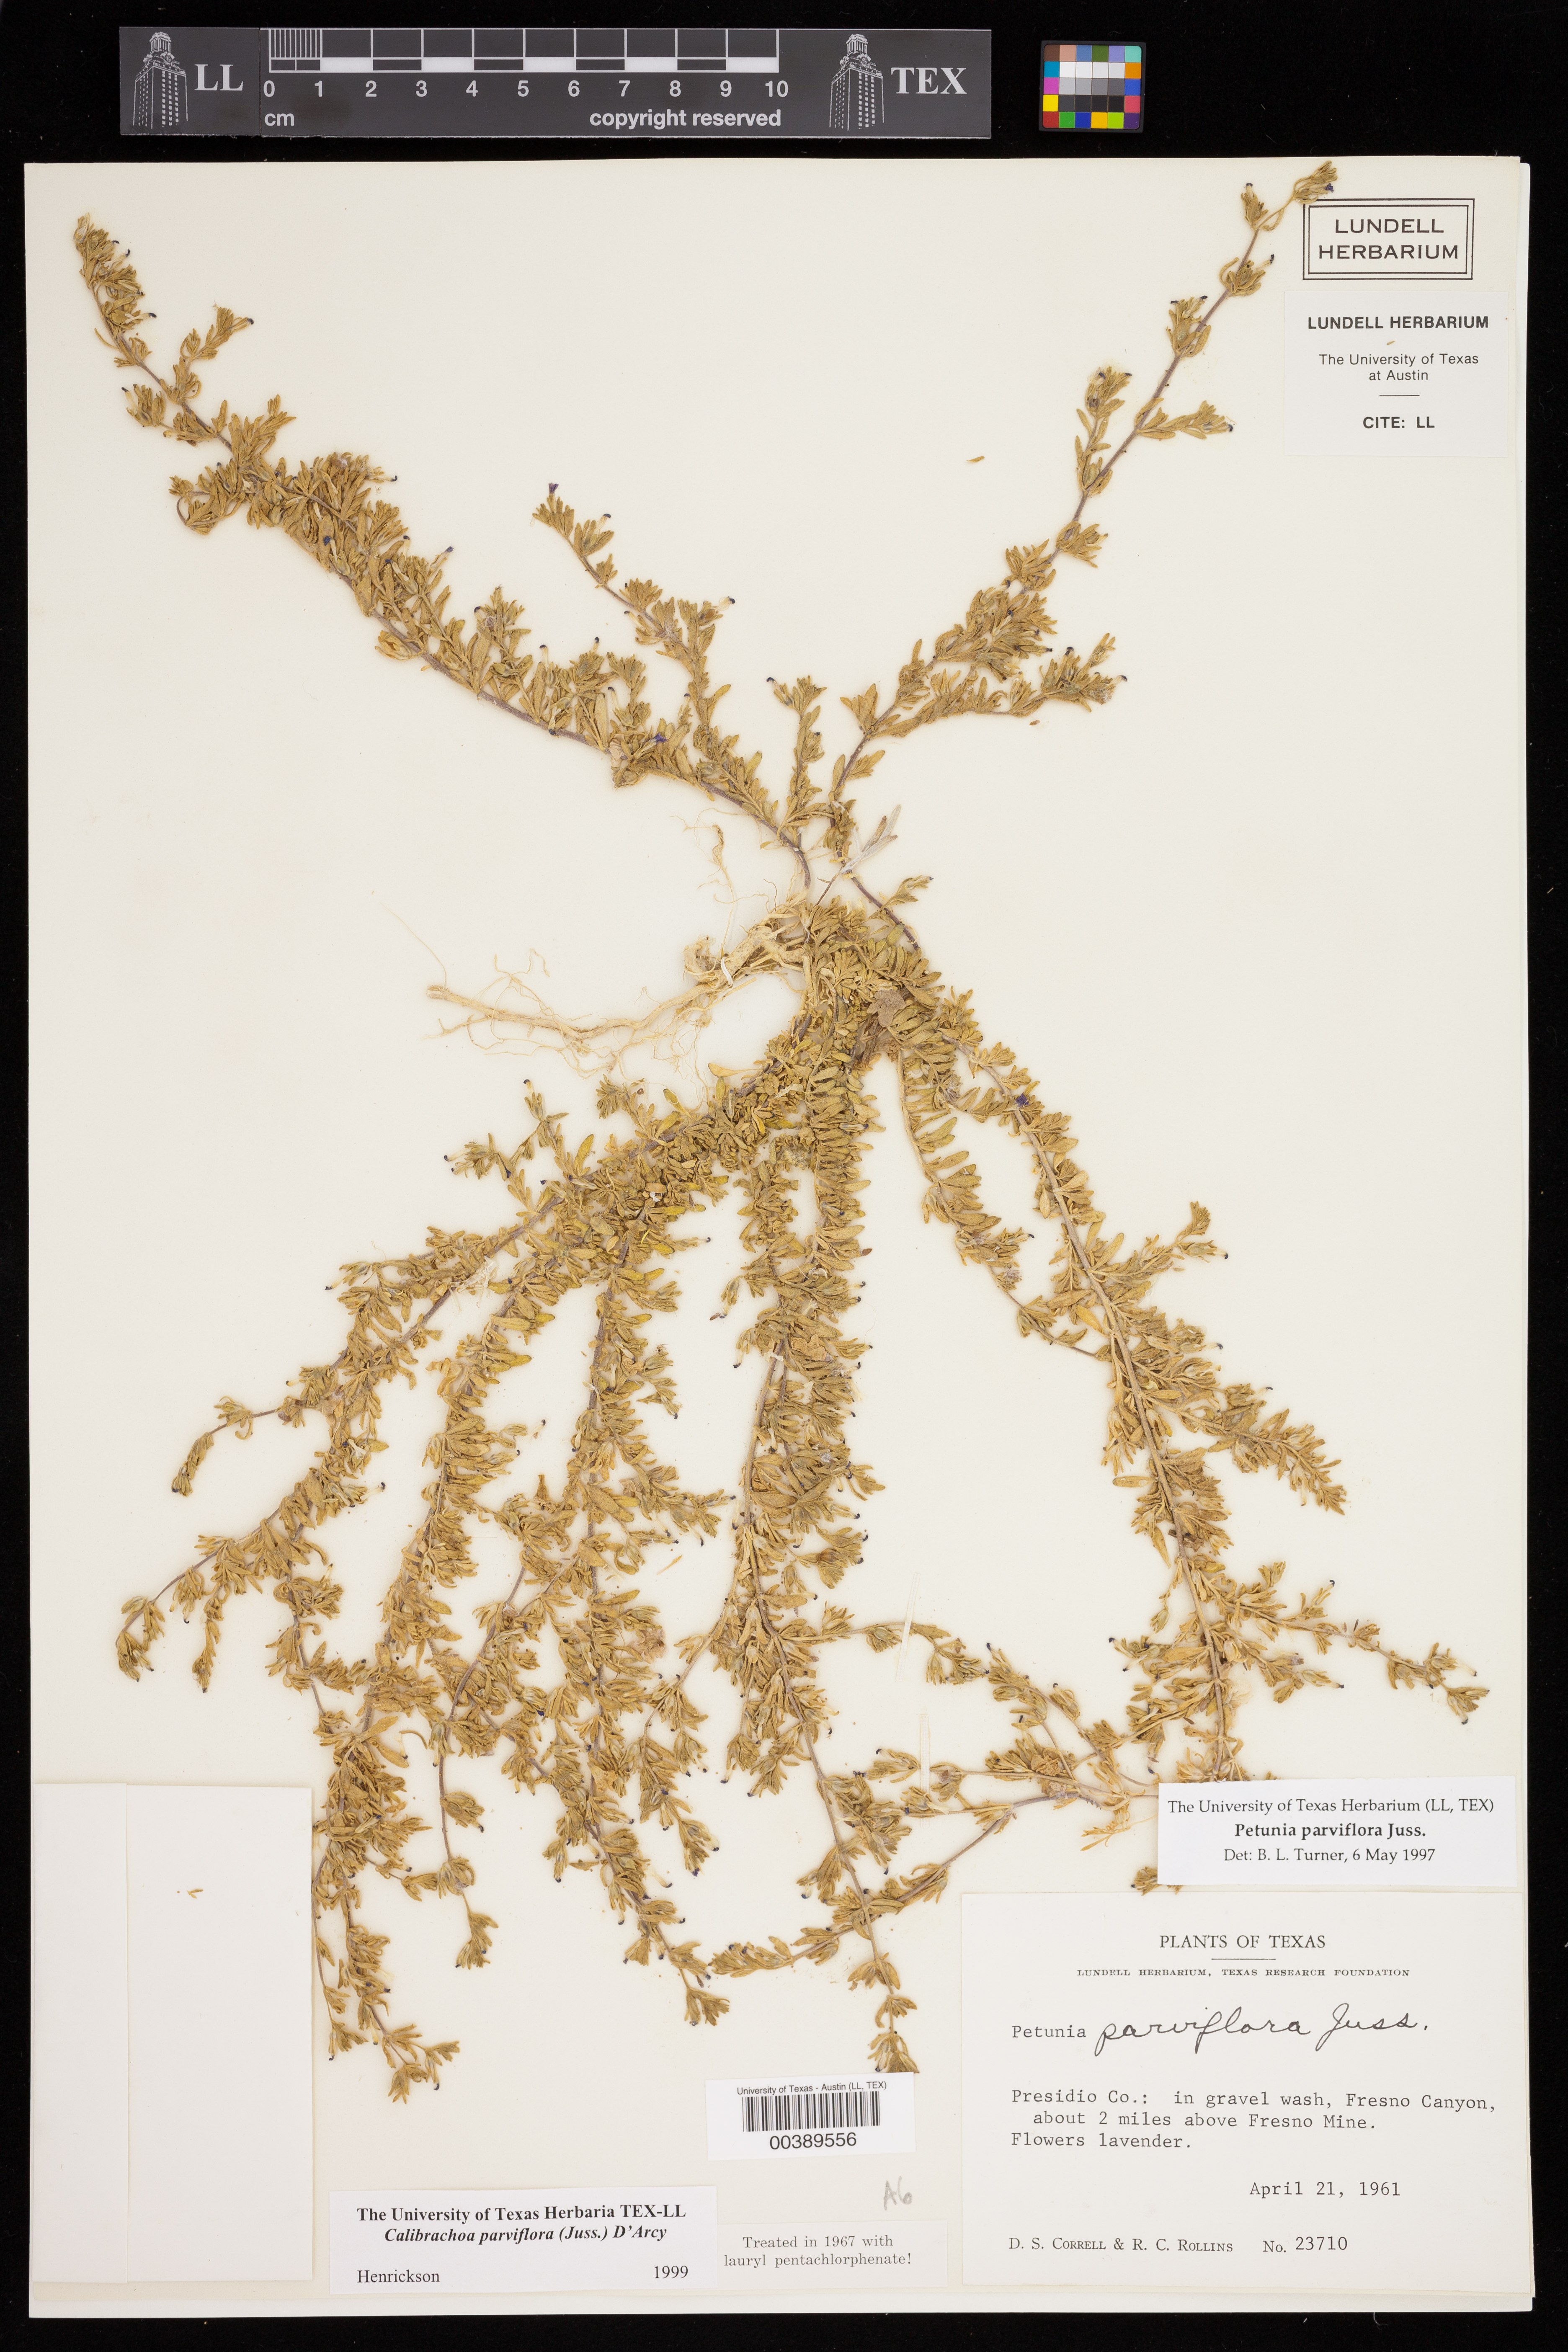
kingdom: Plantae
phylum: Tracheophyta
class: Magnoliopsida
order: Solanales
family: Solanaceae
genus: Calibrachoa
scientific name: Calibrachoa parviflora
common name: Seaside petunia
